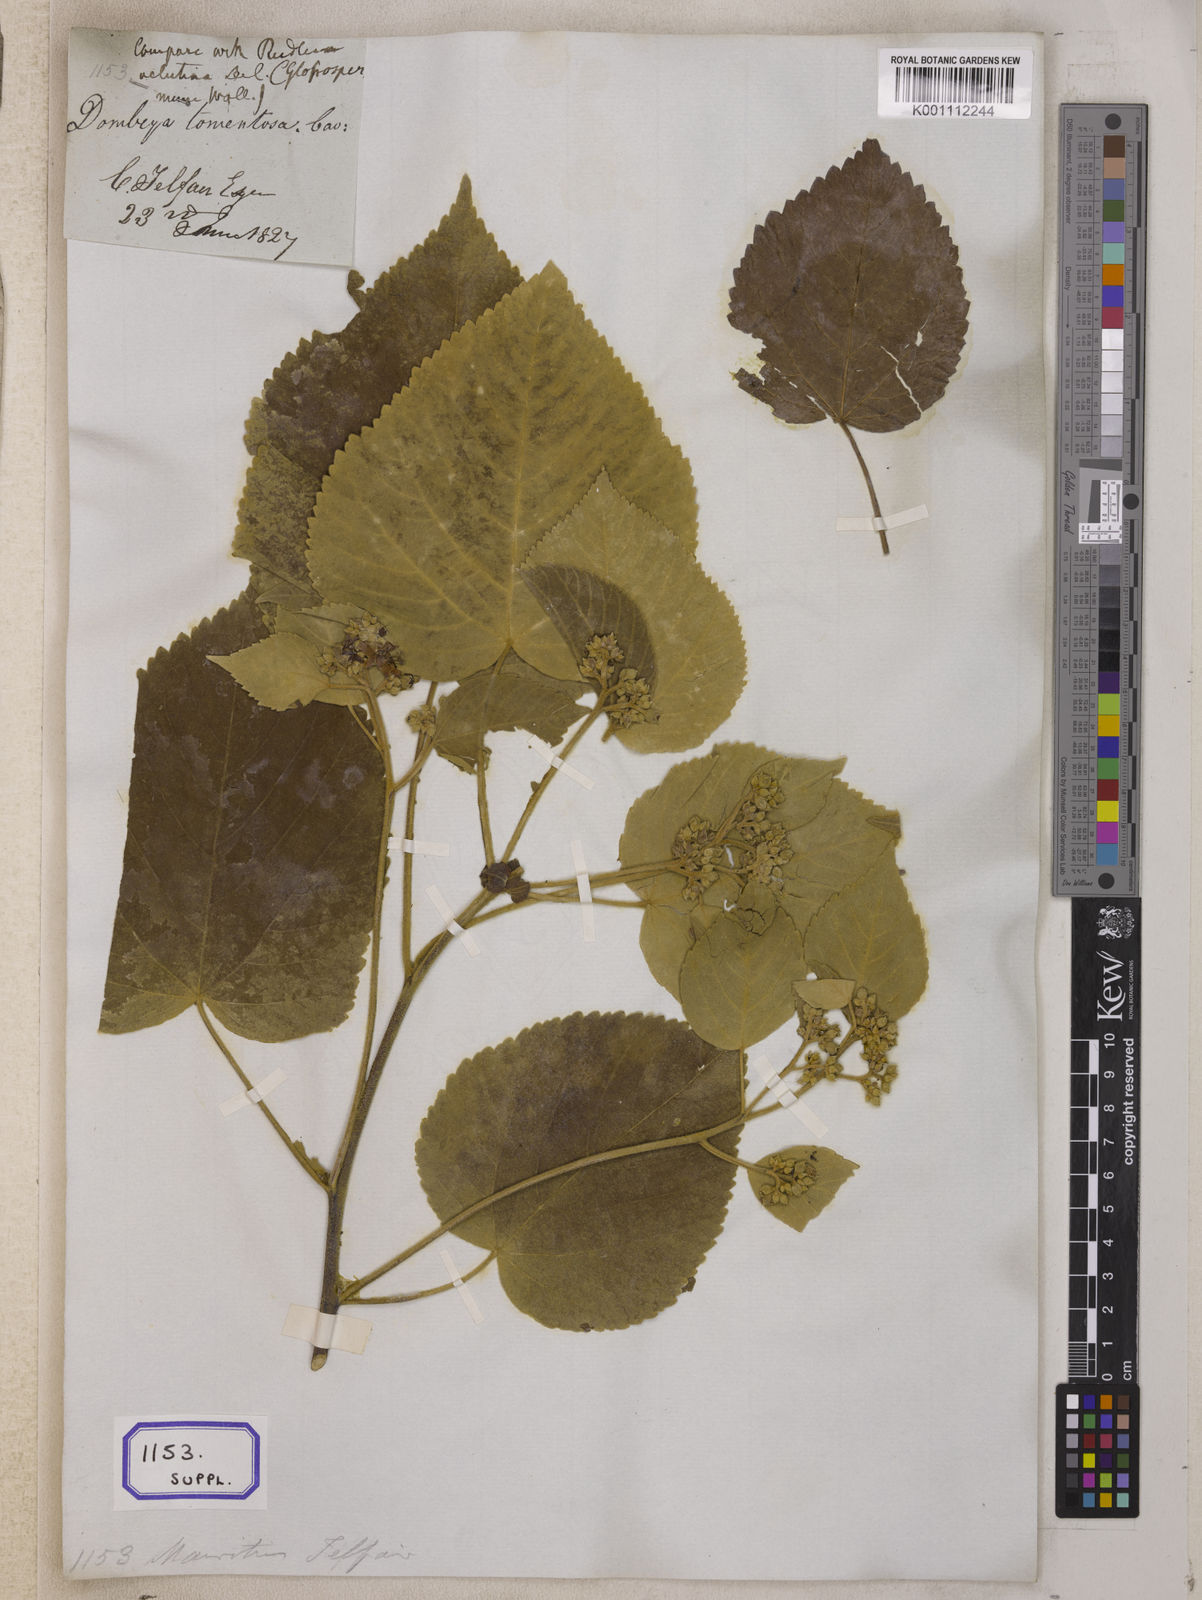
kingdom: Plantae
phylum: Tracheophyta
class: Magnoliopsida
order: Malvales
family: Malvaceae
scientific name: Malvaceae
